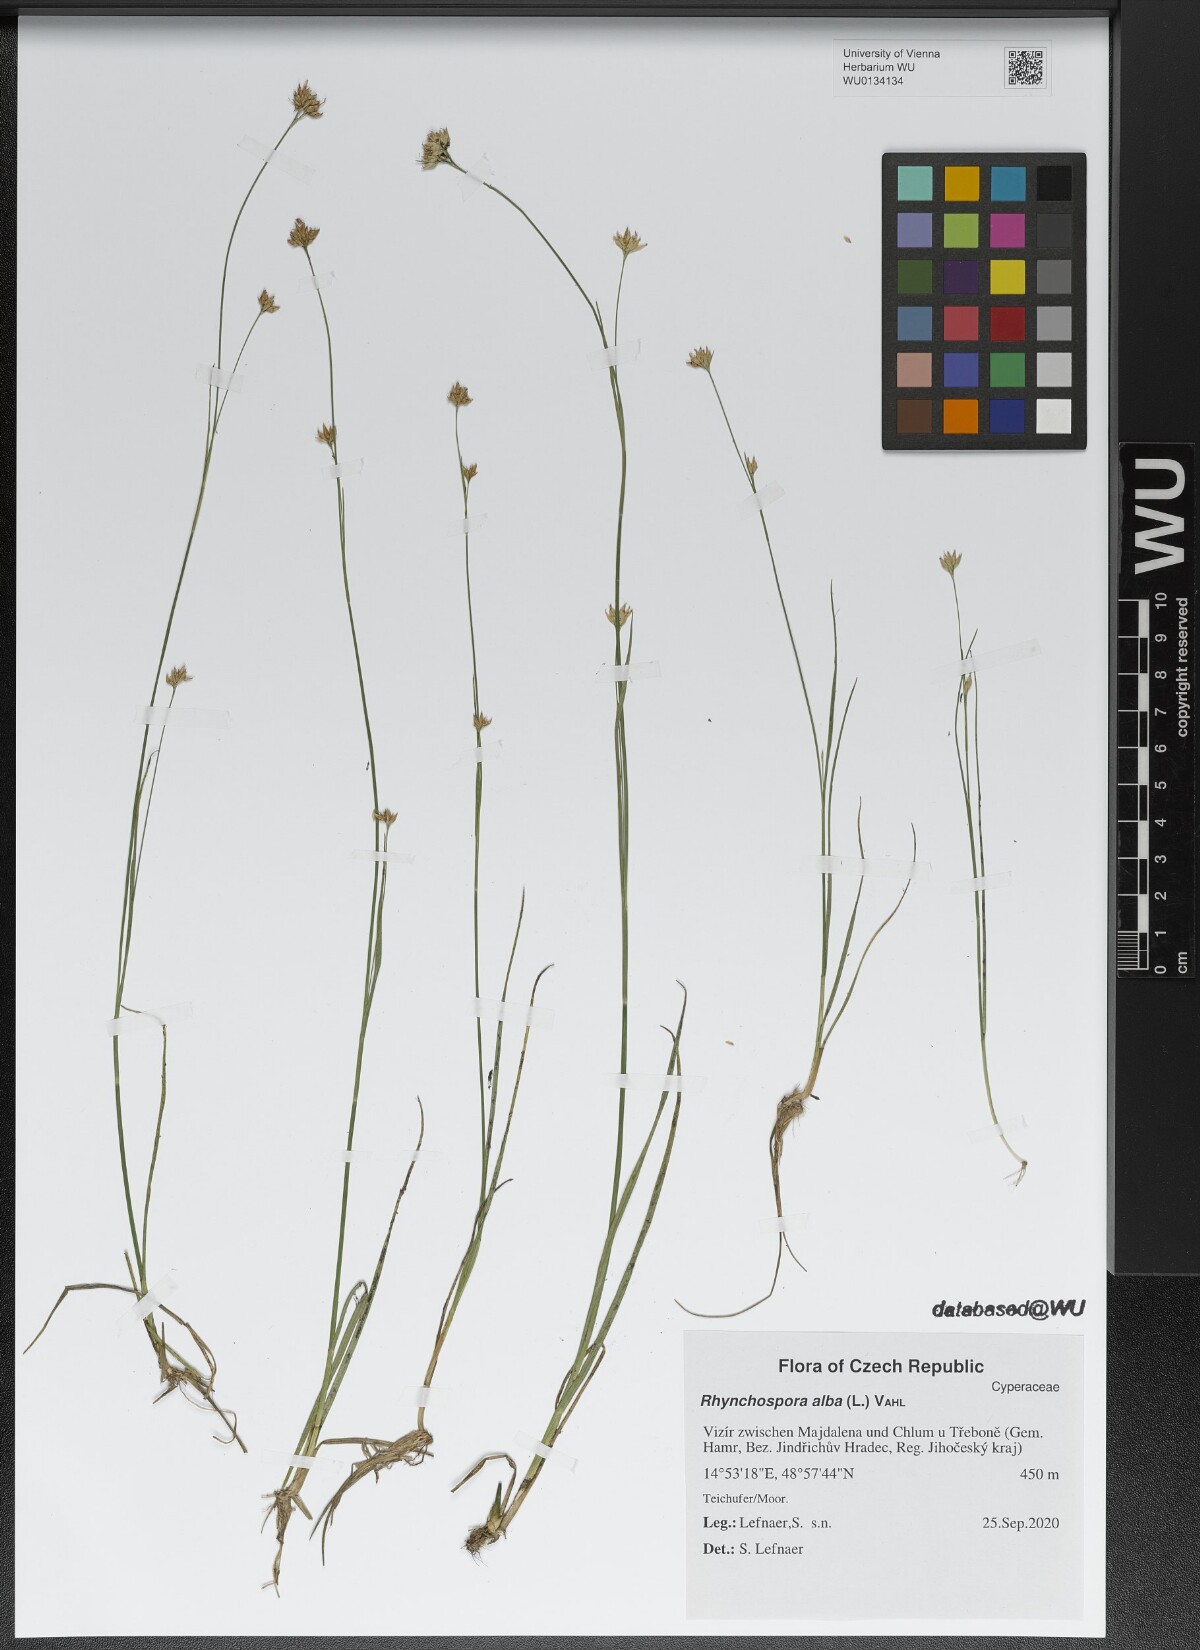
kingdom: Plantae
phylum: Tracheophyta
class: Liliopsida
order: Poales
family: Cyperaceae
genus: Rhynchospora
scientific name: Rhynchospora alba
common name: White beak-sedge
